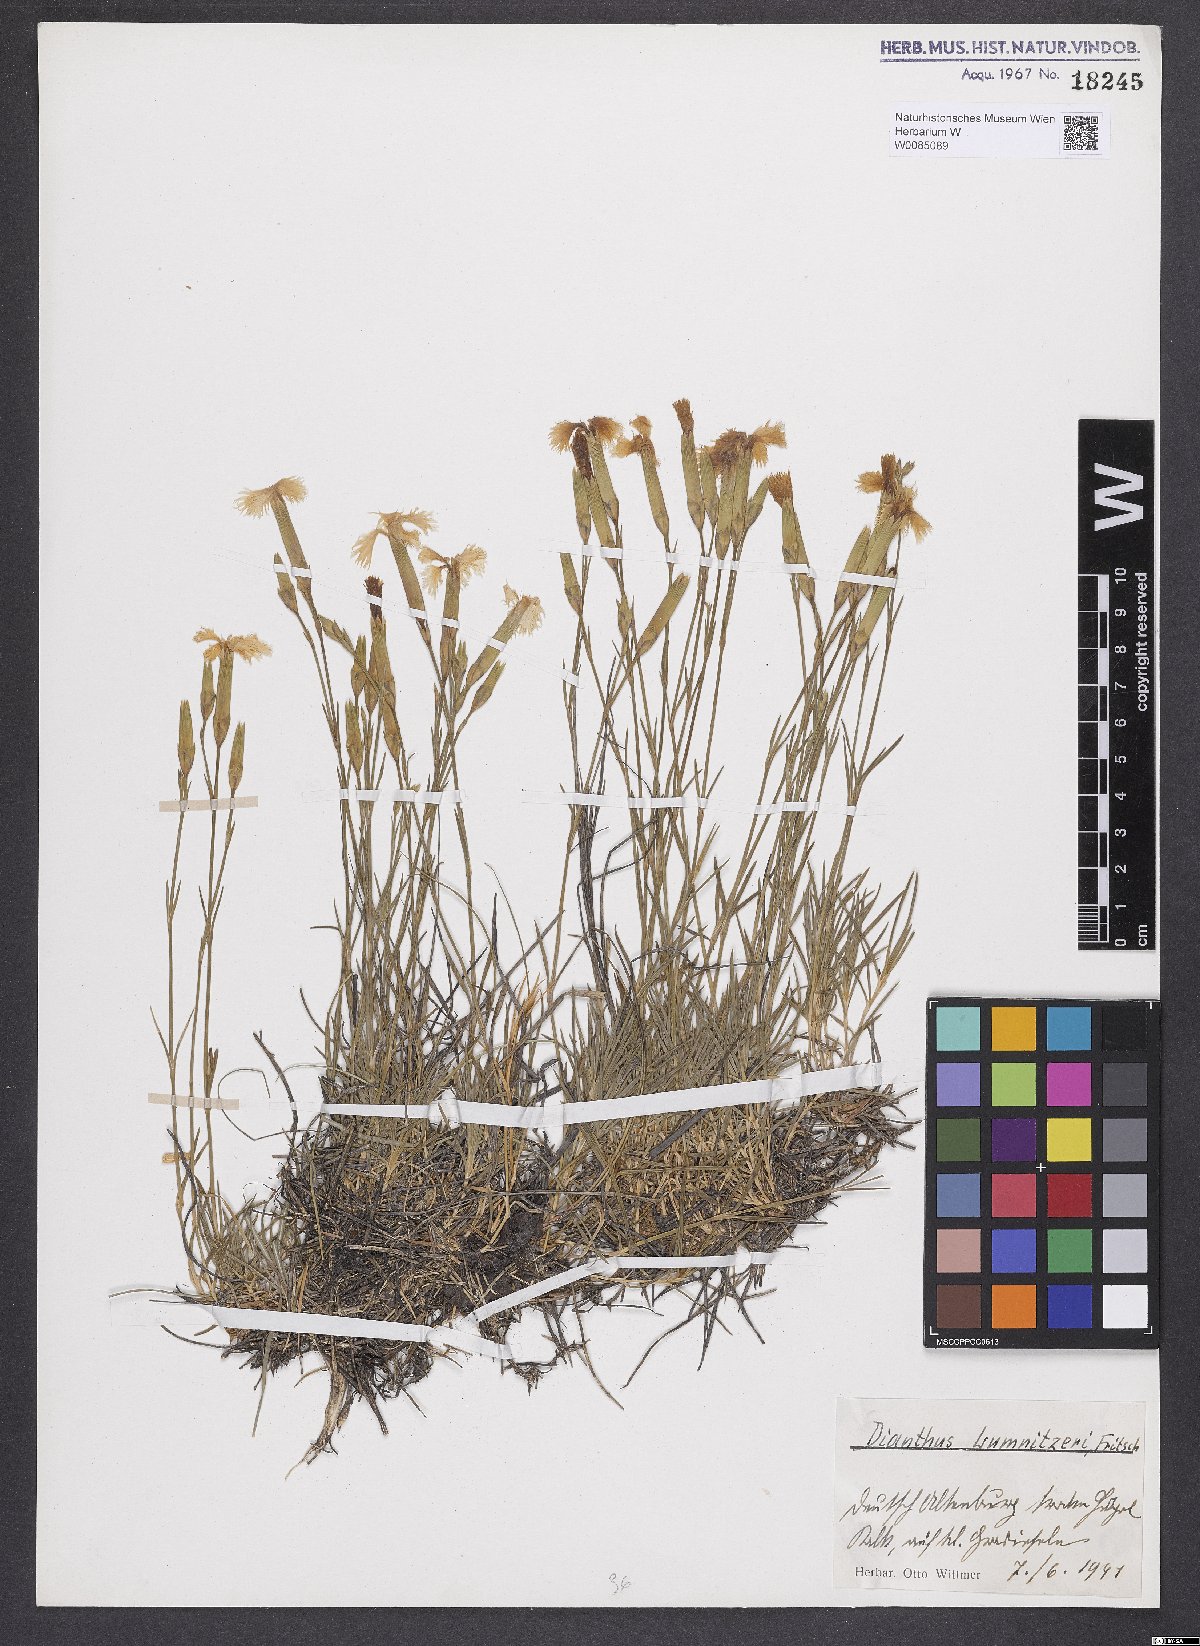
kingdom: Plantae
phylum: Tracheophyta
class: Magnoliopsida
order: Caryophyllales
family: Caryophyllaceae
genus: Dianthus
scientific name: Dianthus praecox
